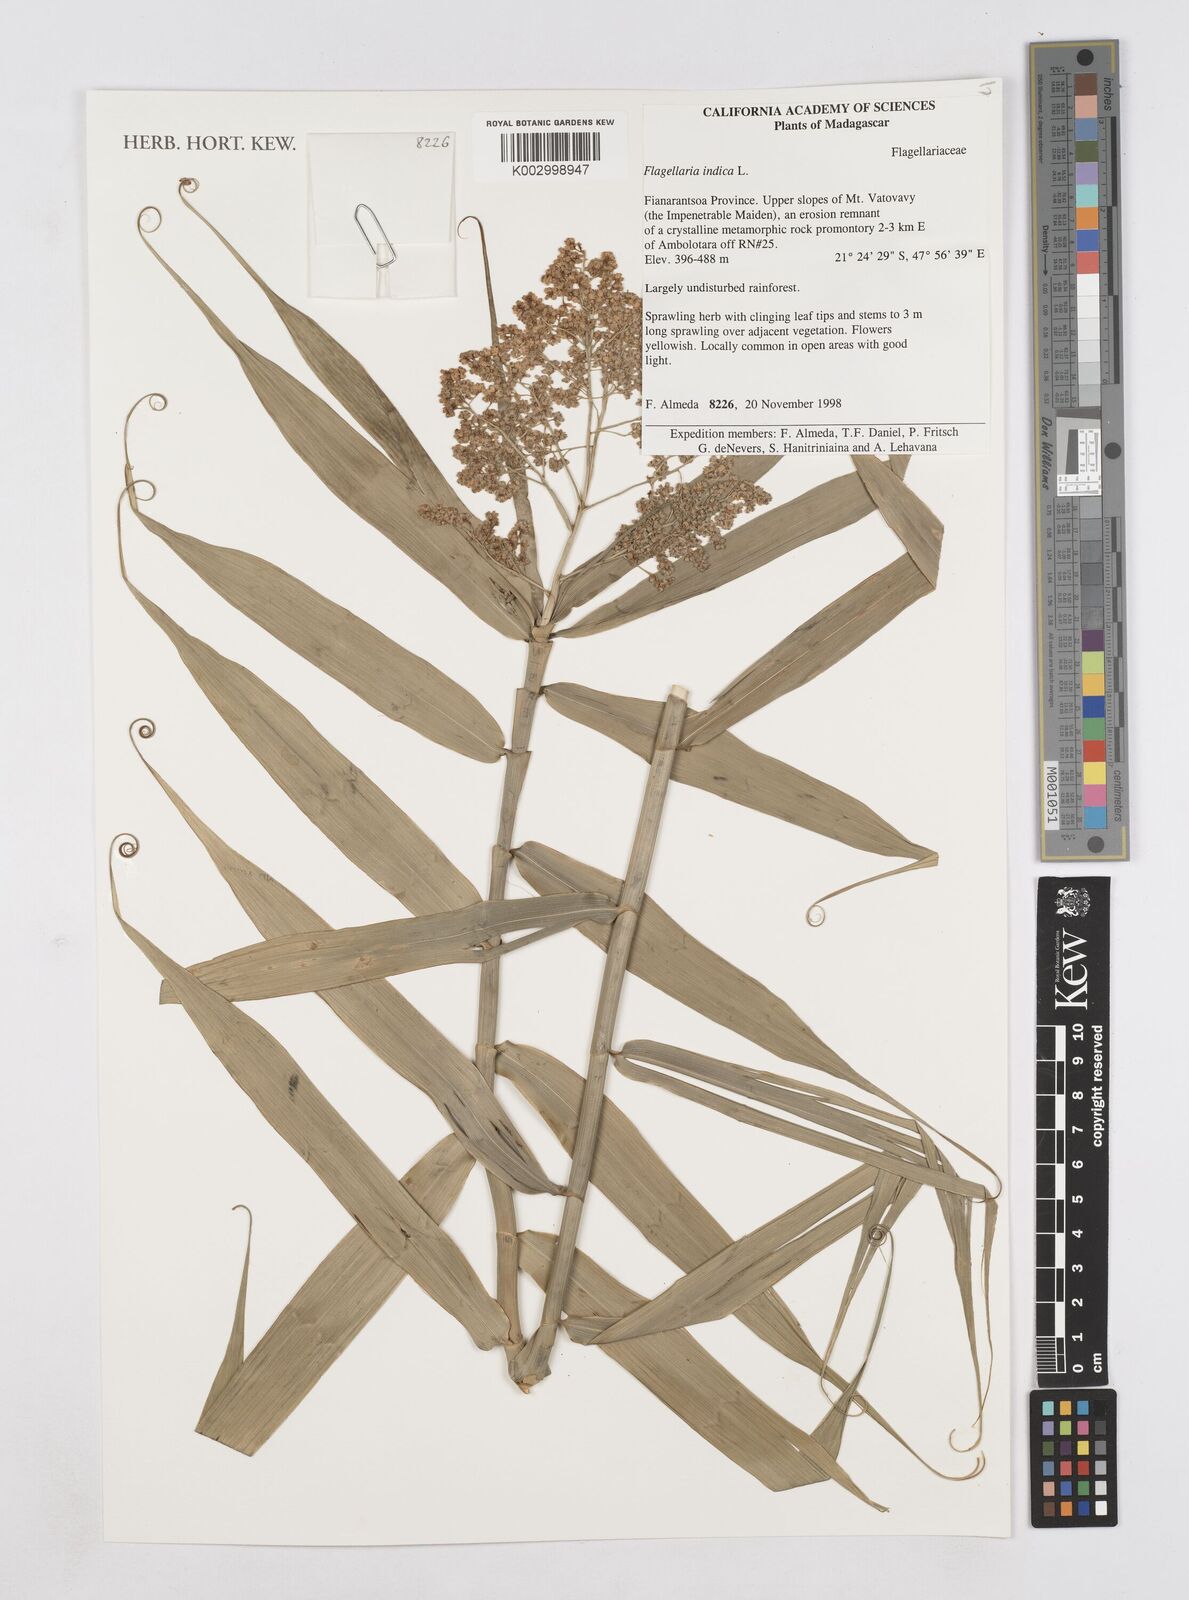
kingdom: Plantae
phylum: Tracheophyta
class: Liliopsida
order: Poales
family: Flagellariaceae
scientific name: Flagellariaceae
